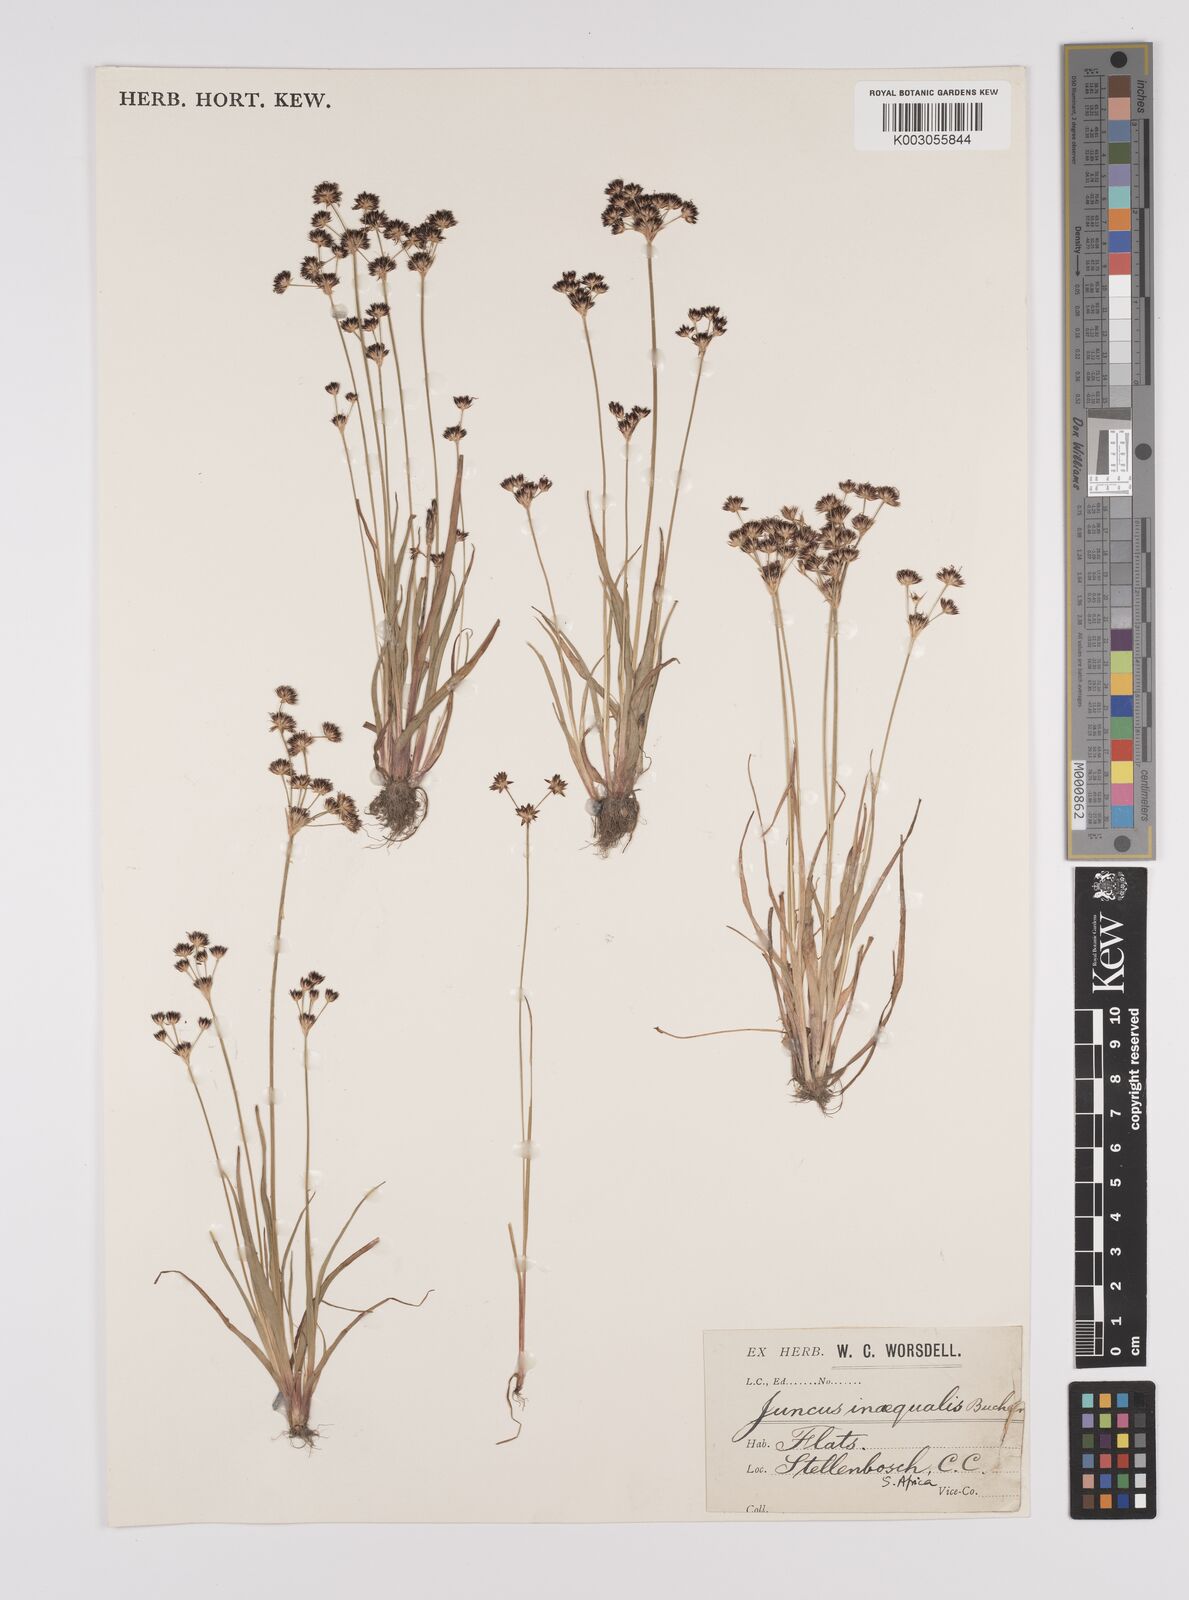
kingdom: Plantae
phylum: Tracheophyta
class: Liliopsida
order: Poales
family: Juncaceae
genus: Juncus
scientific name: Juncus cephalotes
